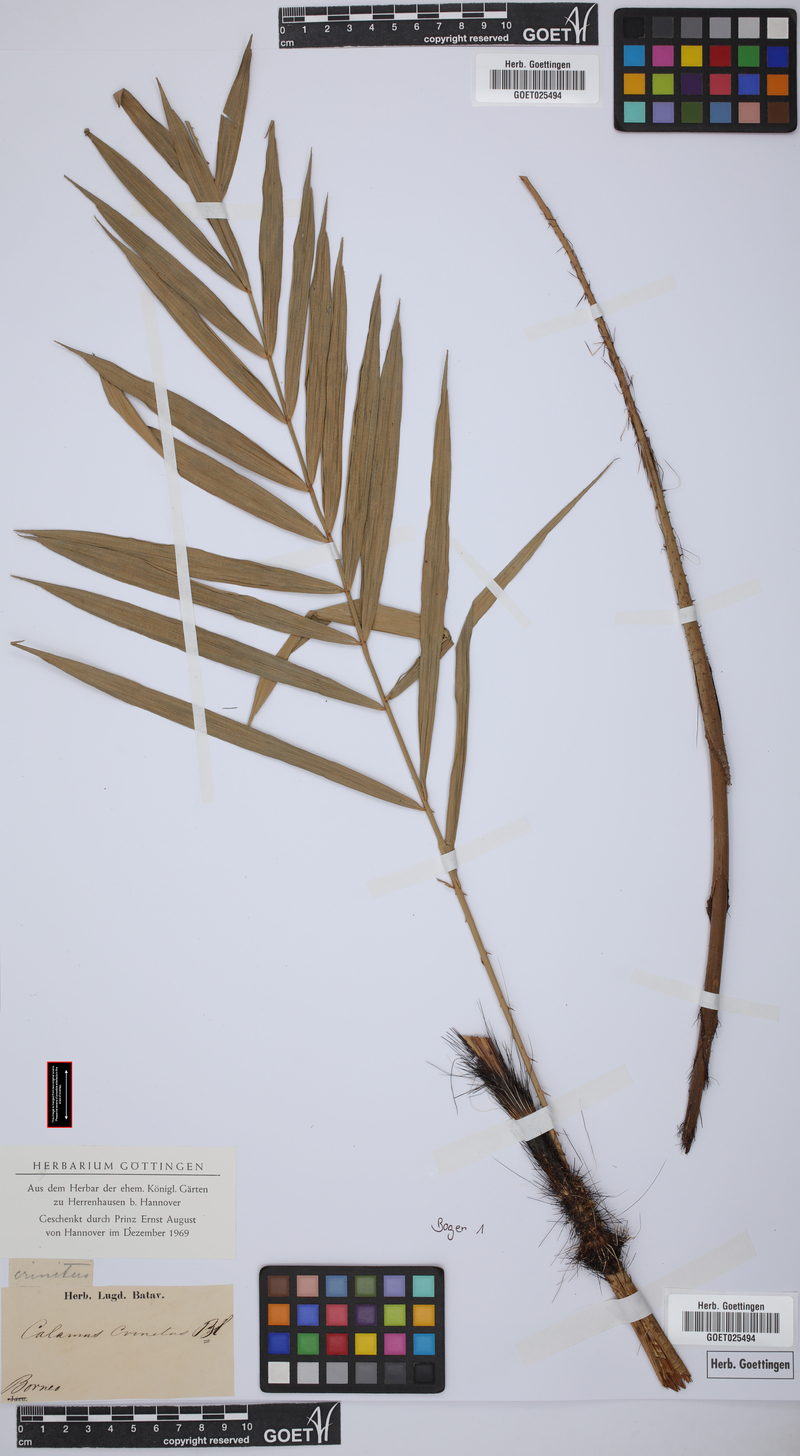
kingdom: Plantae
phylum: Tracheophyta
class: Liliopsida
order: Arecales
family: Arecaceae
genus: Calamus
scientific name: Calamus crinitus
